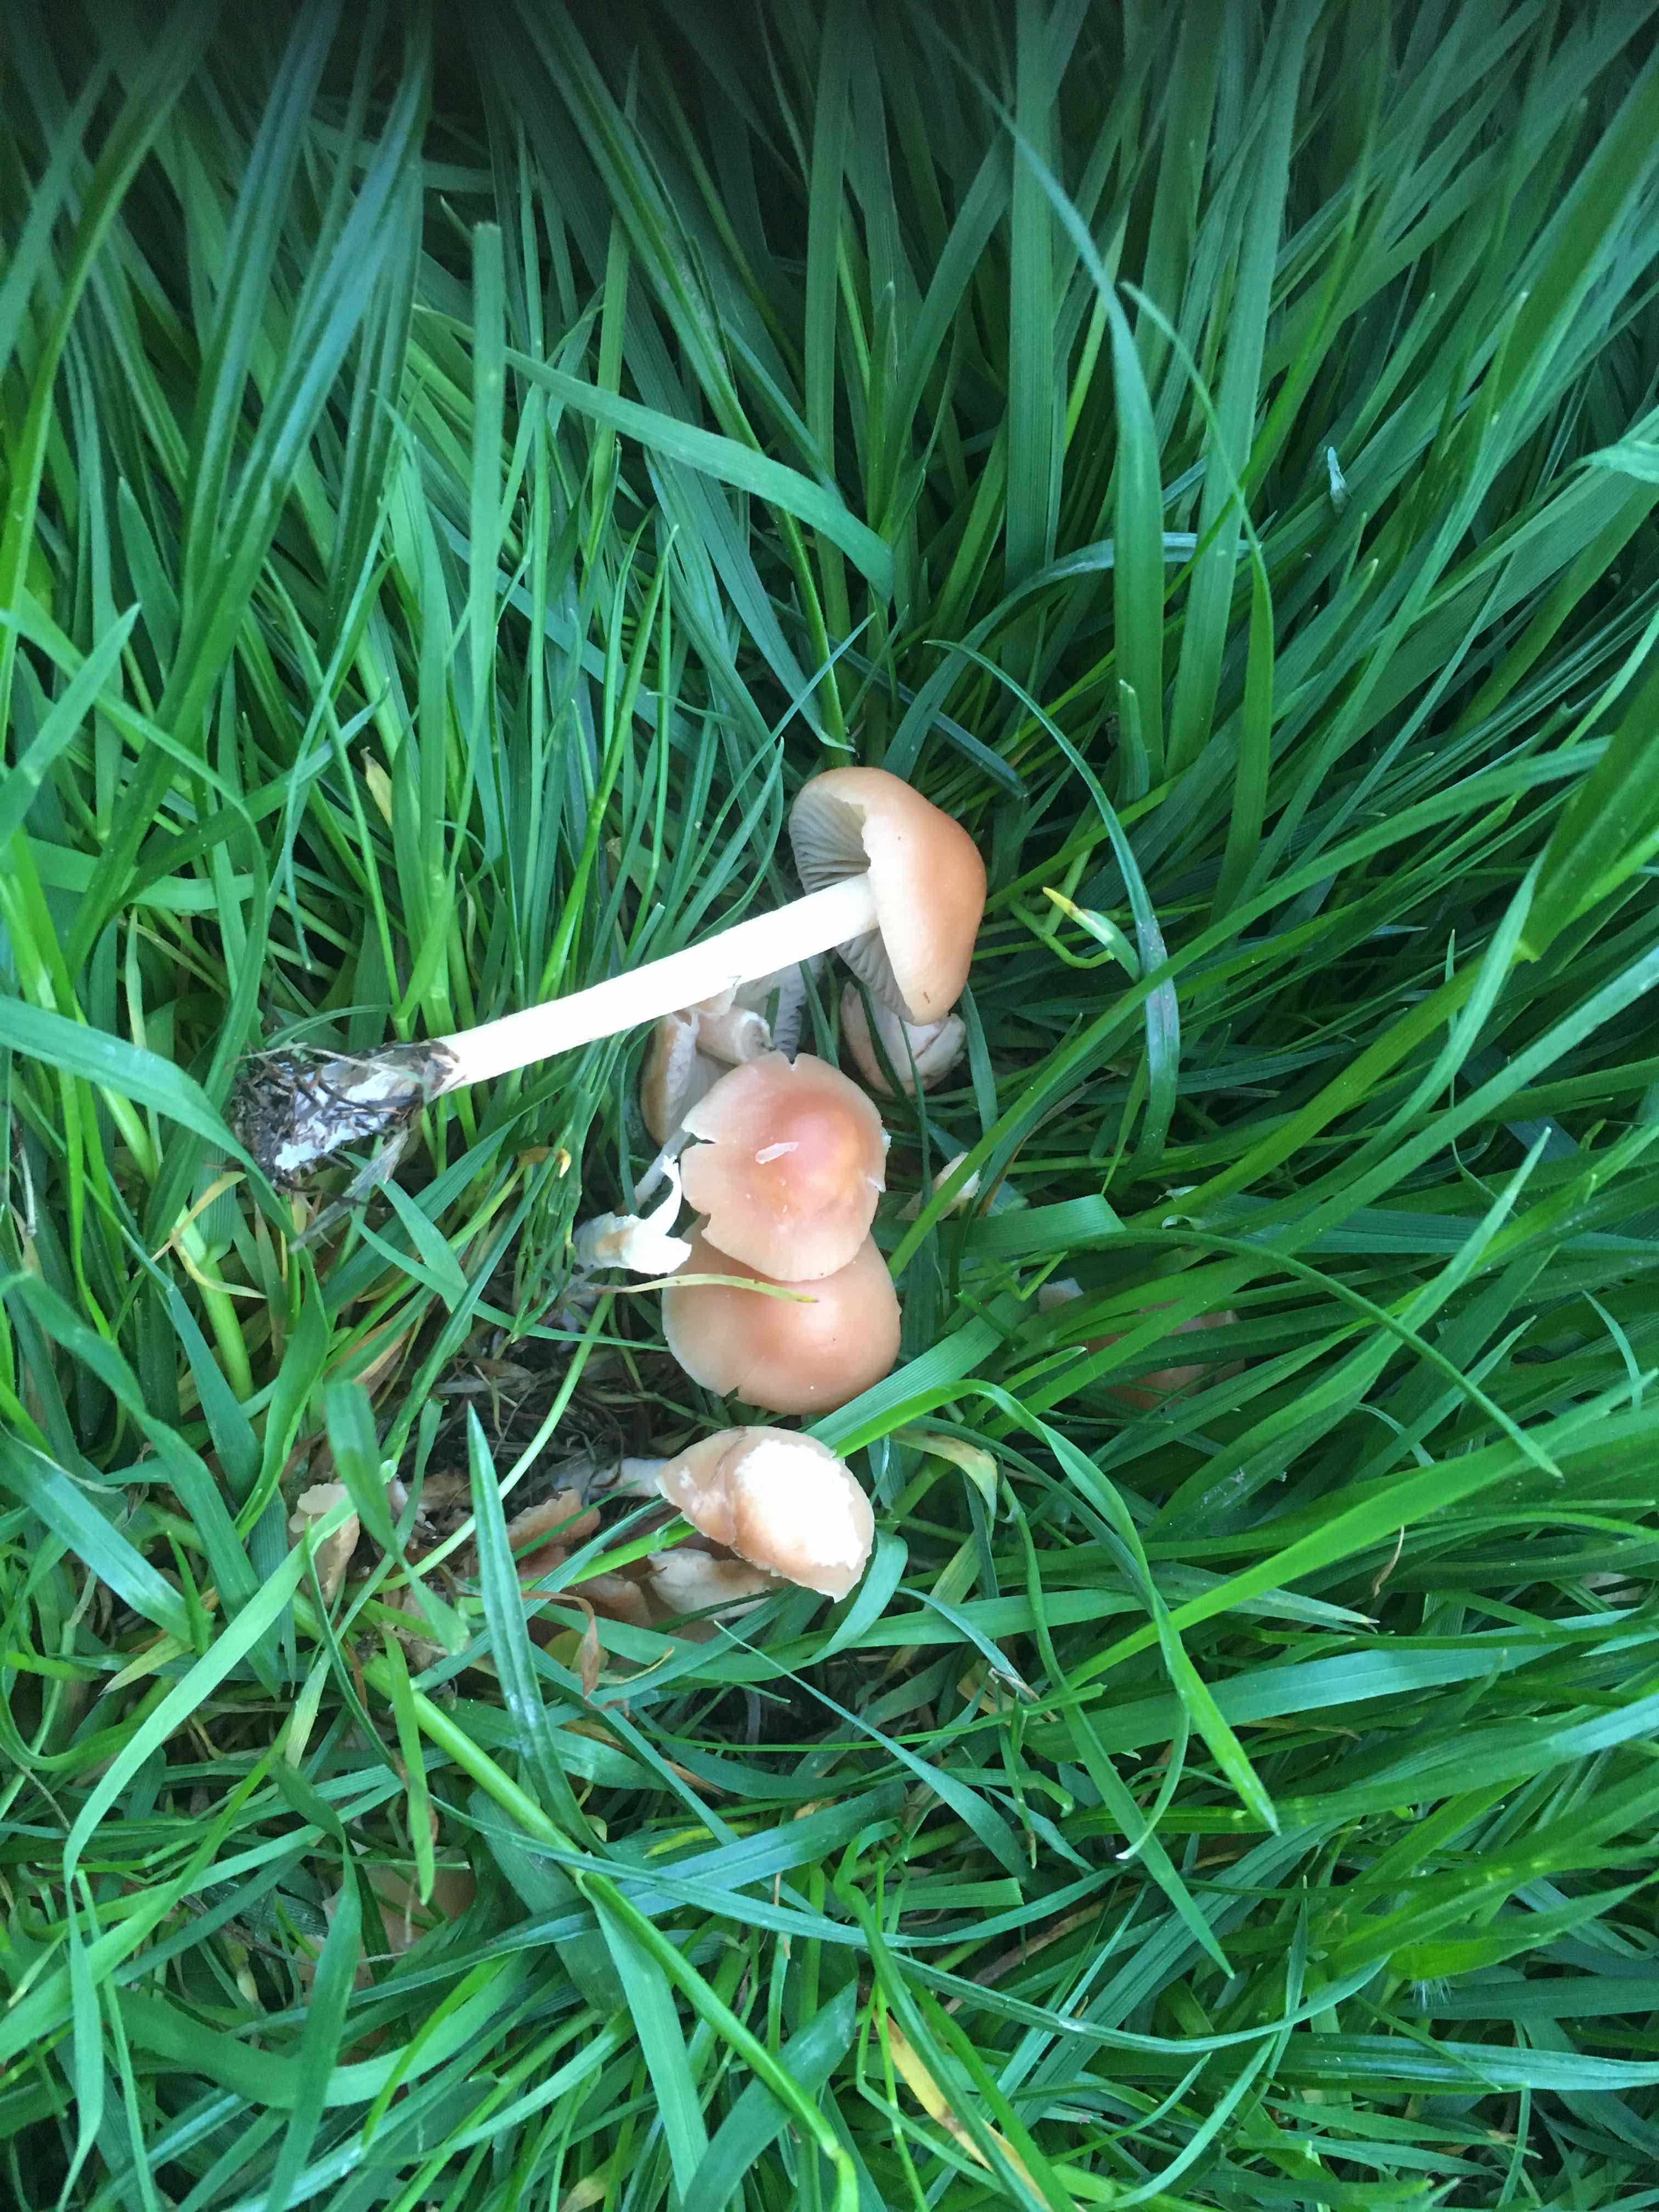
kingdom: Fungi
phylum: Basidiomycota
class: Agaricomycetes
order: Agaricales
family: Marasmiaceae
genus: Marasmius
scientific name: Marasmius oreades
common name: elledans-bruskhat
